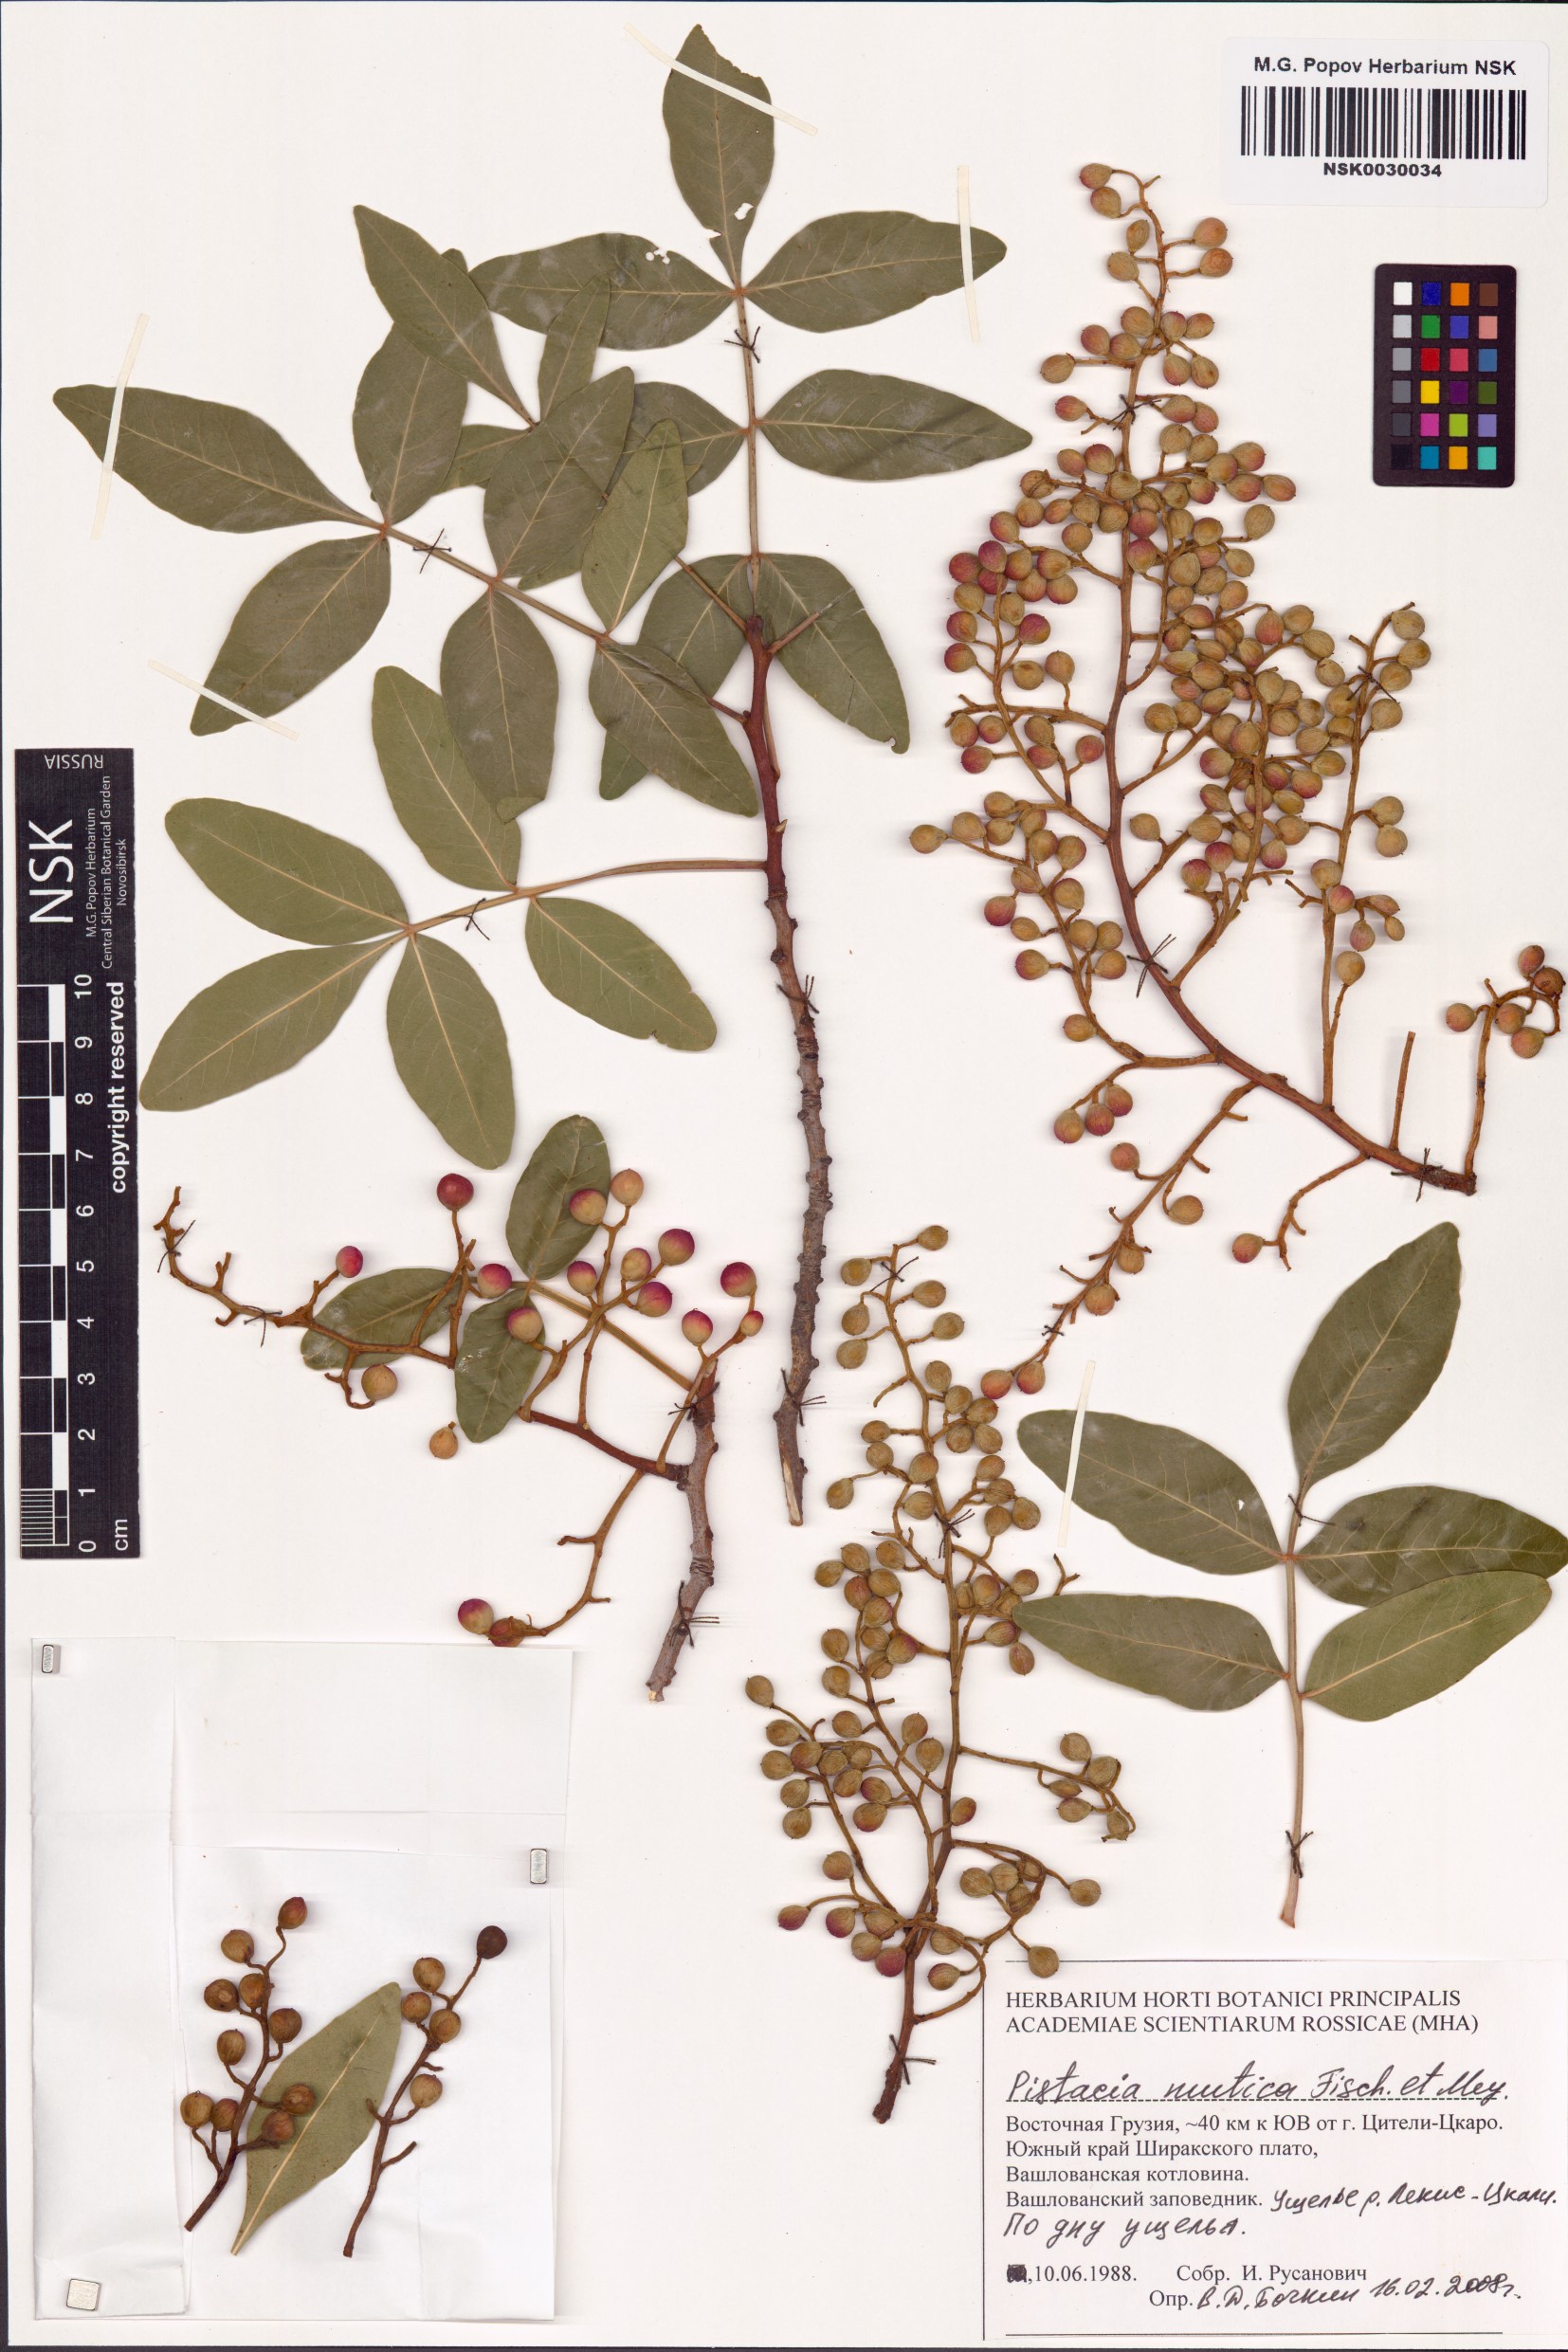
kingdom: Plantae
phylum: Tracheophyta
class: Magnoliopsida
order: Sapindales
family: Anacardiaceae
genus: Pistacia
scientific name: Pistacia atlantica
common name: Mt. atlas mastic tree
